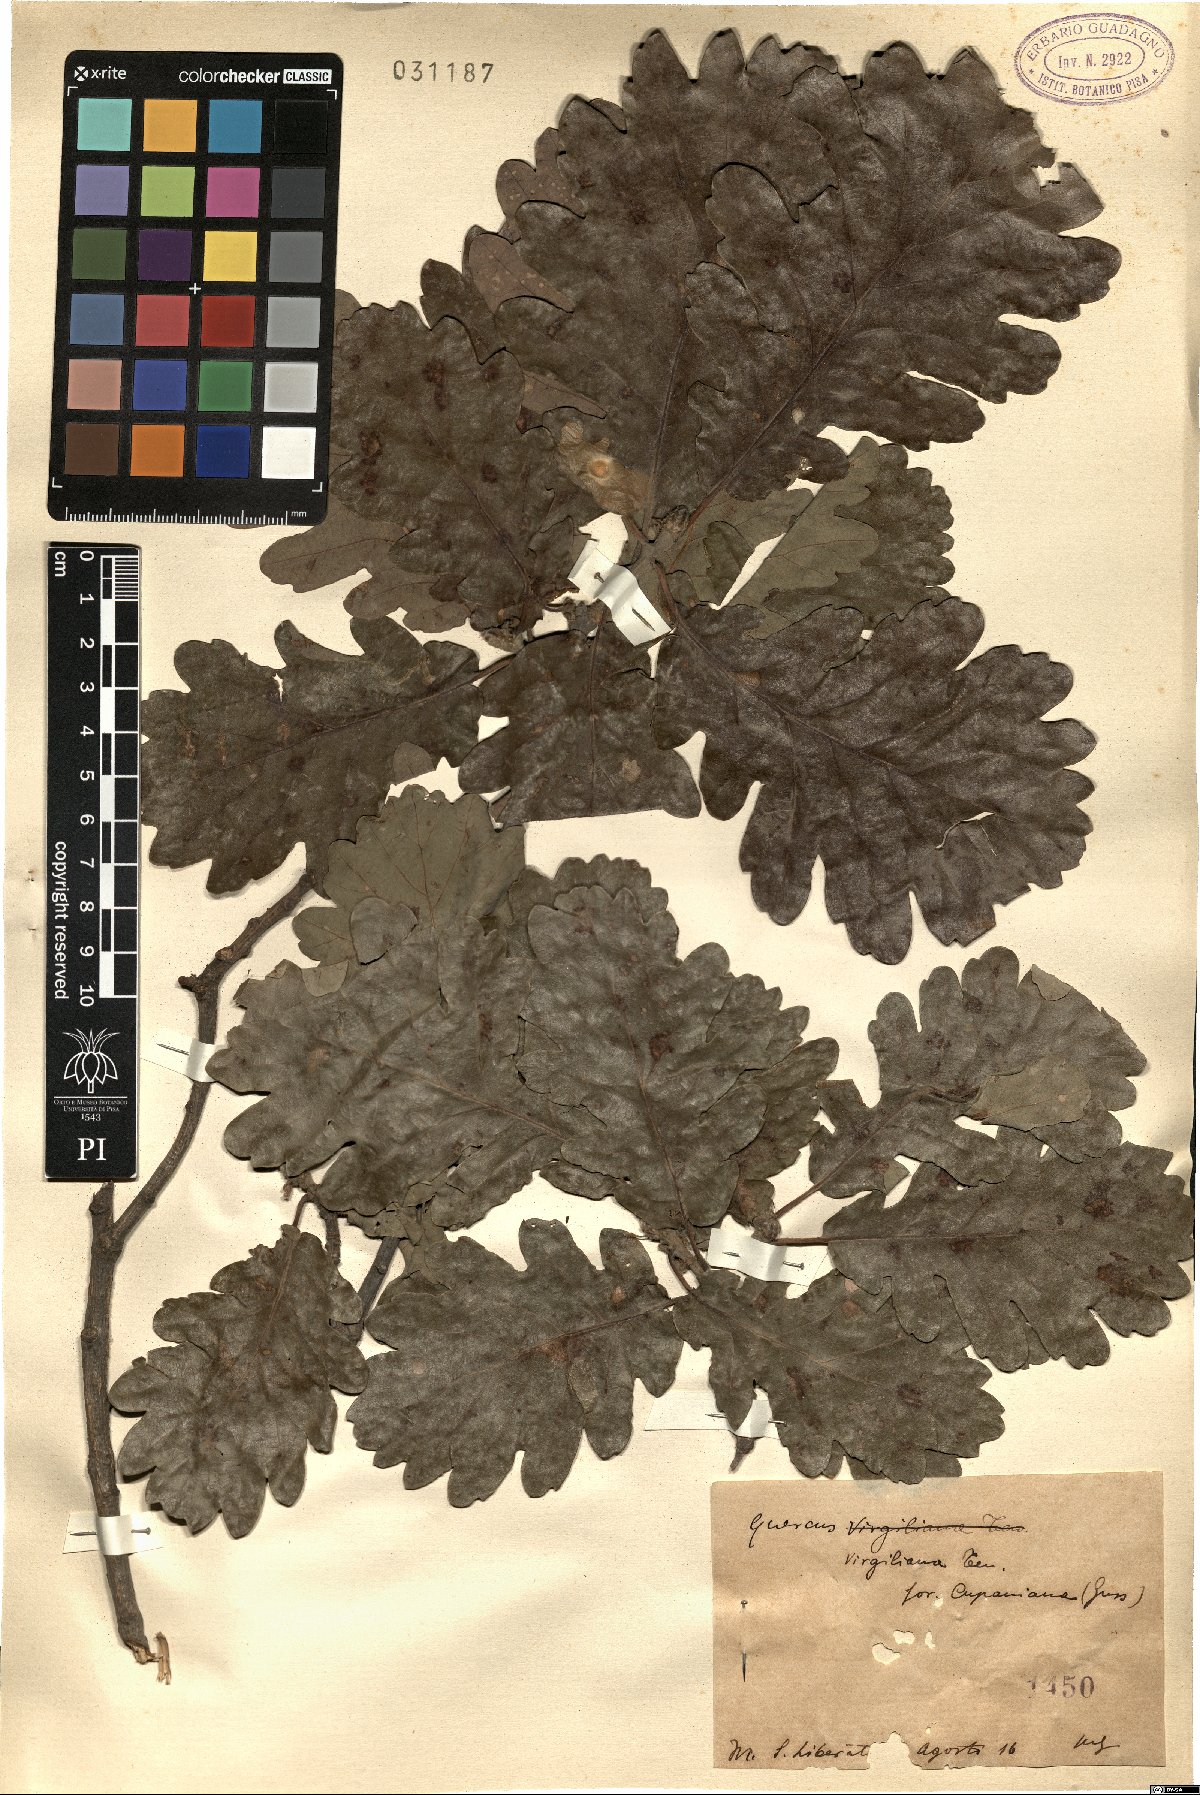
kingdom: Plantae
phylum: Tracheophyta
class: Magnoliopsida
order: Fagales
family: Fagaceae
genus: Quercus
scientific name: Quercus pubescens
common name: Downy oak
